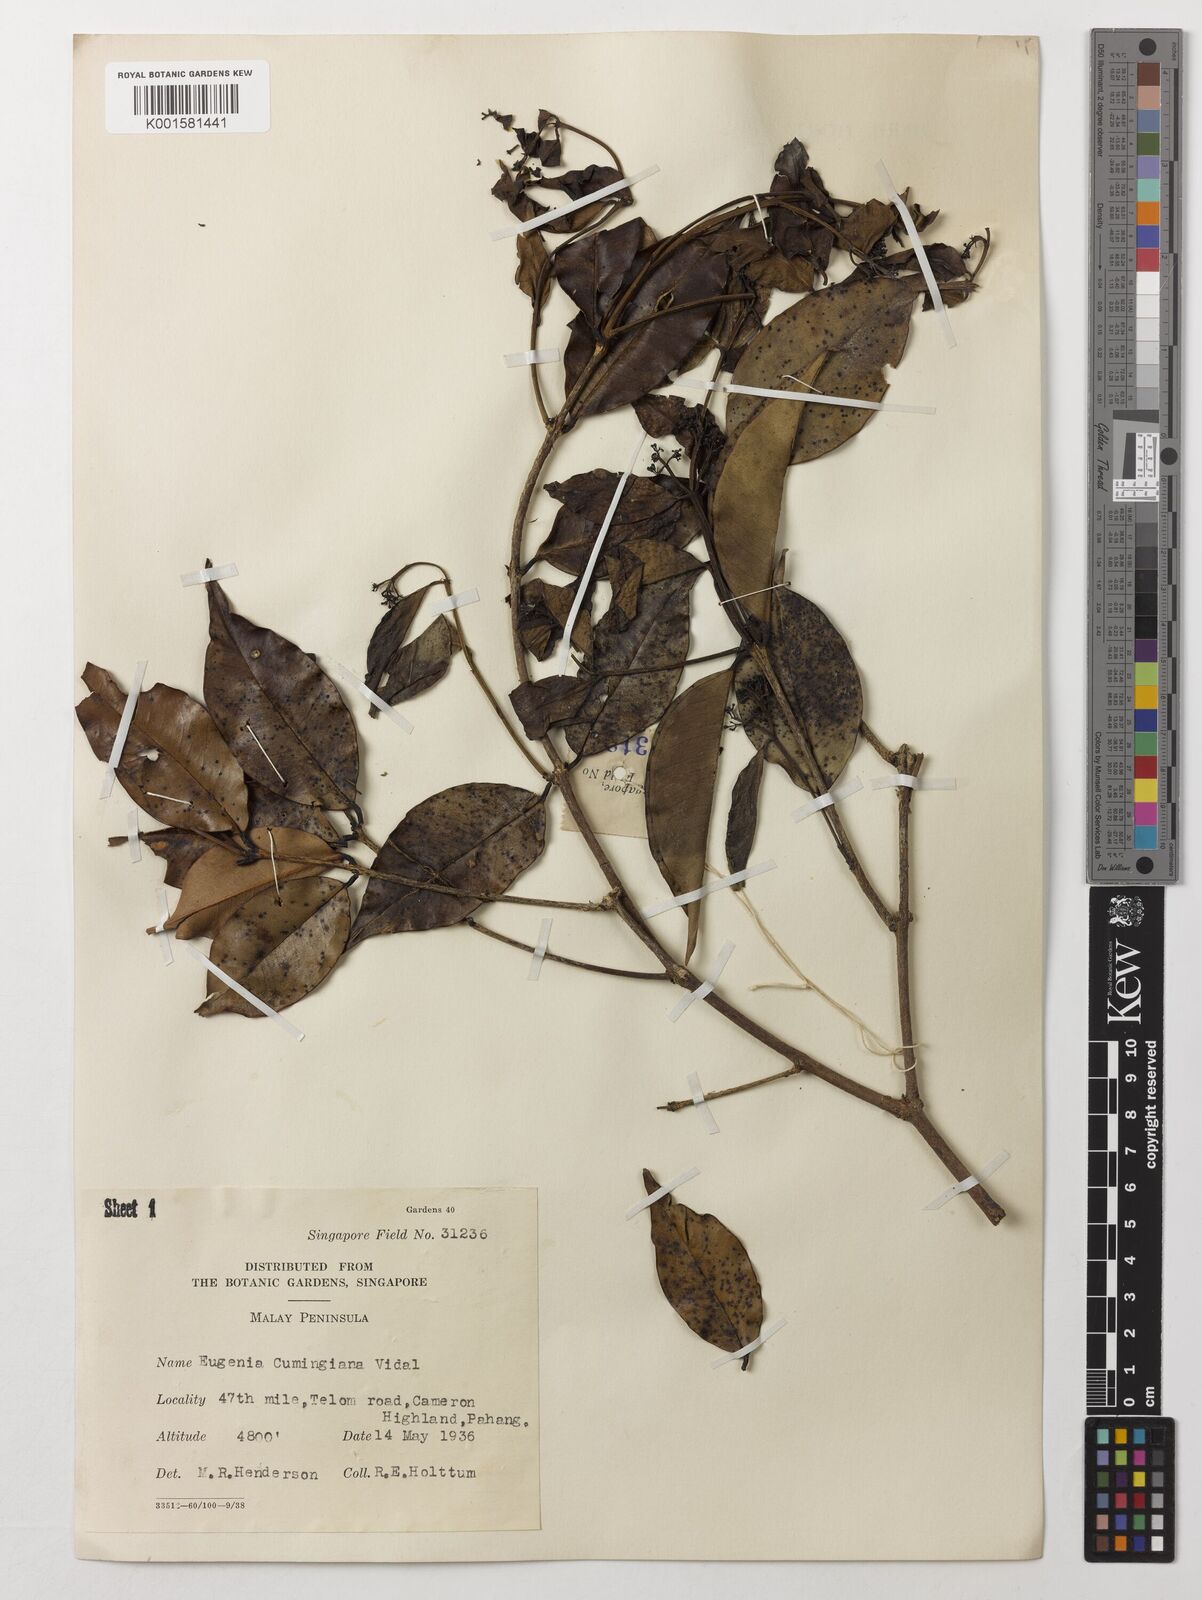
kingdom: Plantae
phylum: Tracheophyta
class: Magnoliopsida
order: Myrtales
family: Myrtaceae
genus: Syzygium
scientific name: Syzygium acuminatissimum
